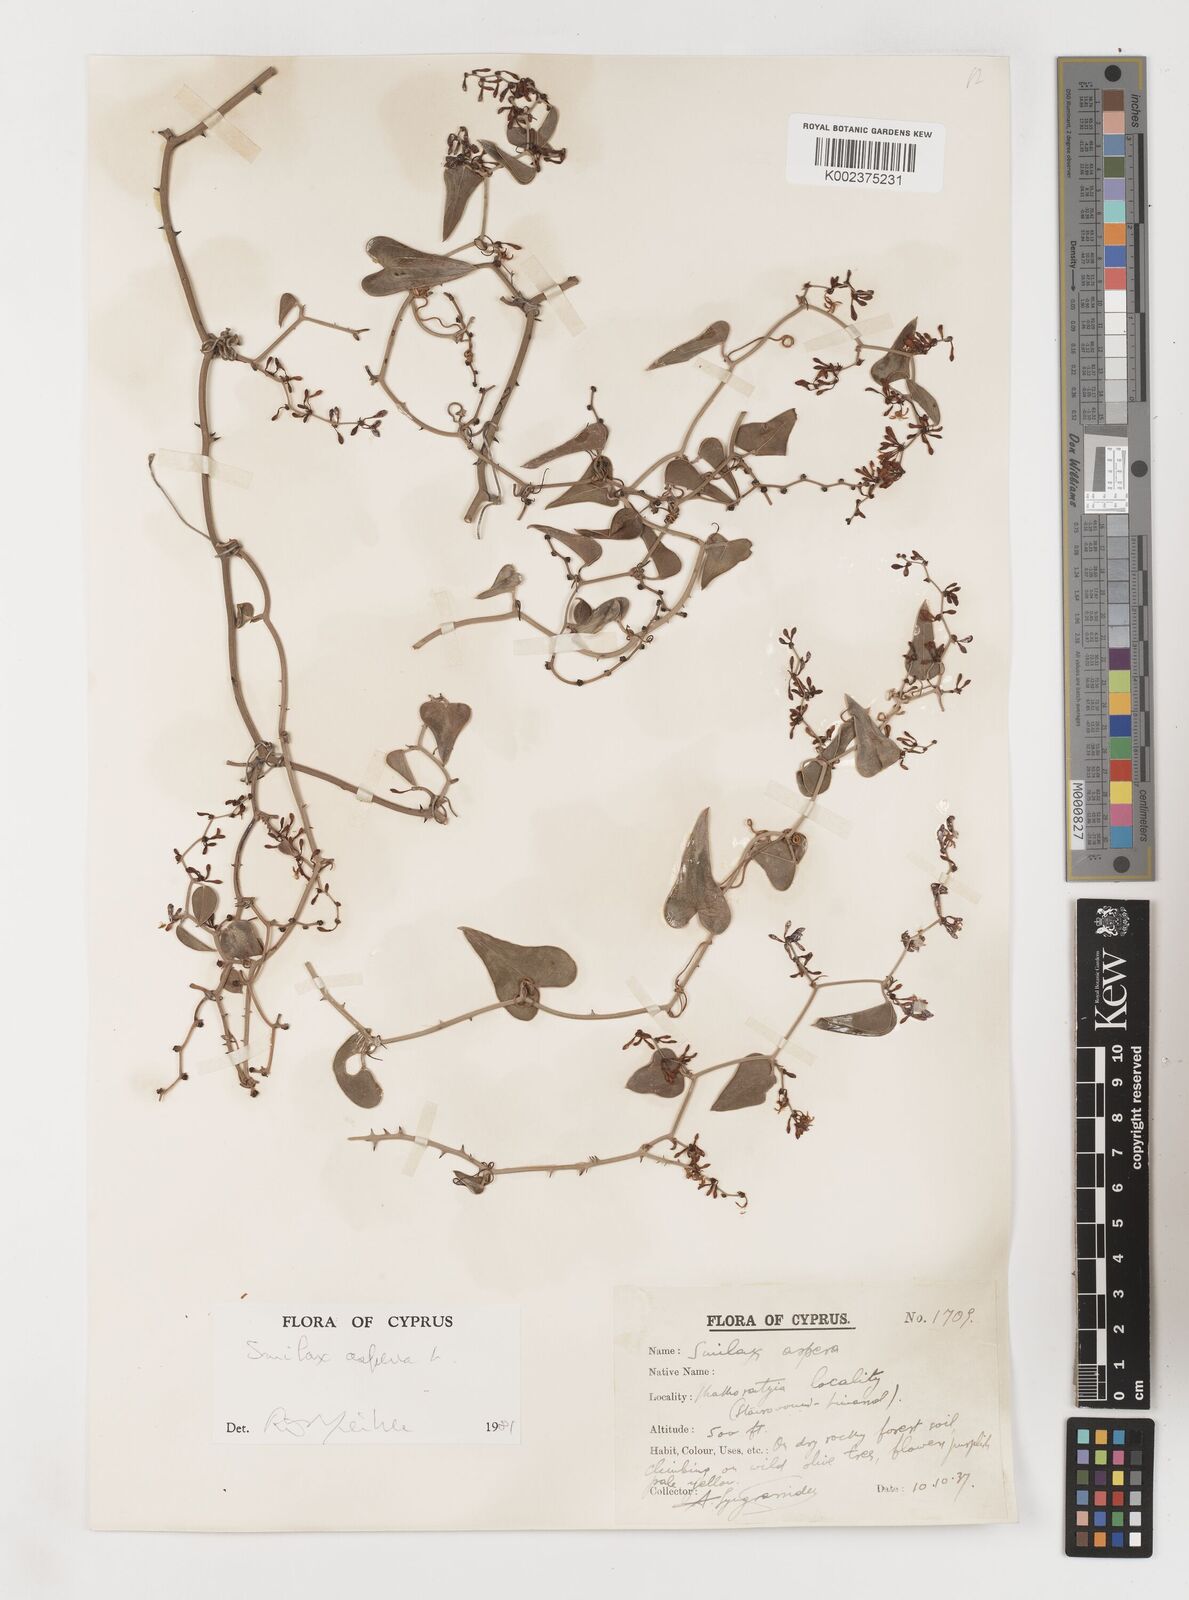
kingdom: Plantae
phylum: Tracheophyta
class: Liliopsida
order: Liliales
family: Smilacaceae
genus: Smilax
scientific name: Smilax aspera
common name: Common smilax
